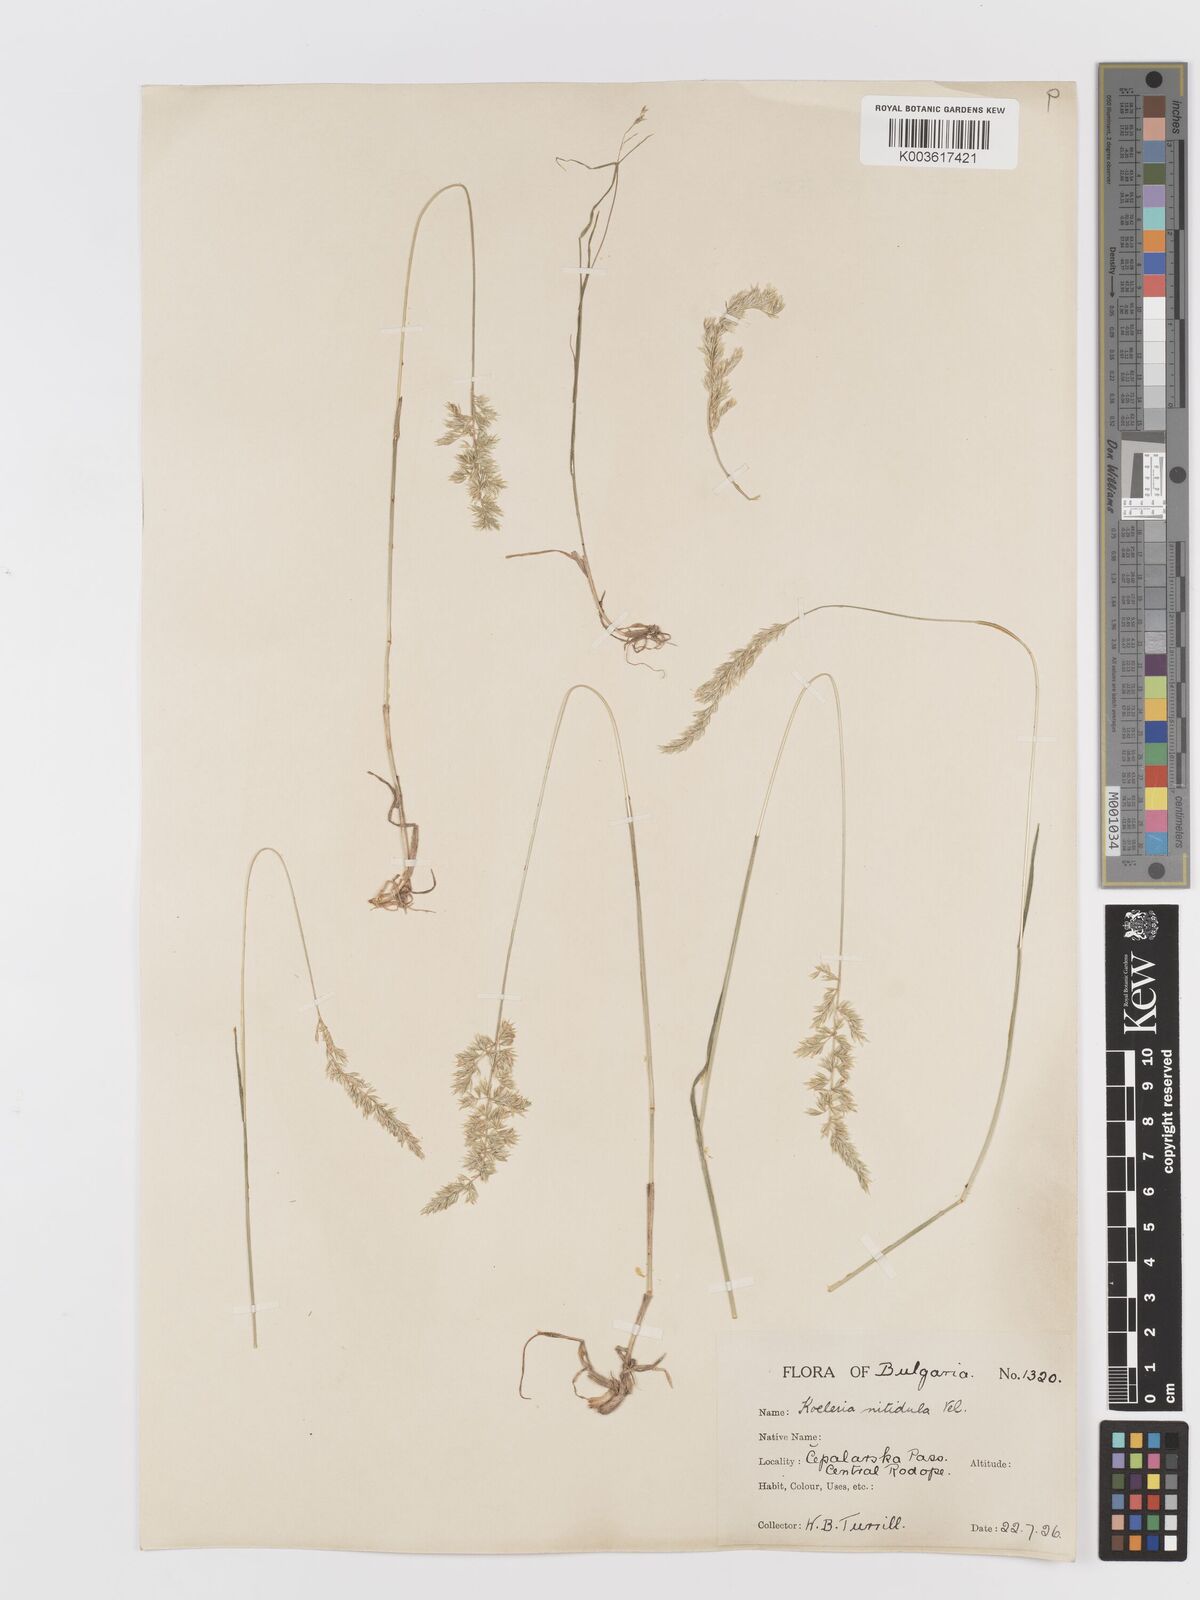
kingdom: Plantae
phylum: Tracheophyta
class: Liliopsida
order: Poales
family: Poaceae
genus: Koeleria
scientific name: Koeleria nitidula
